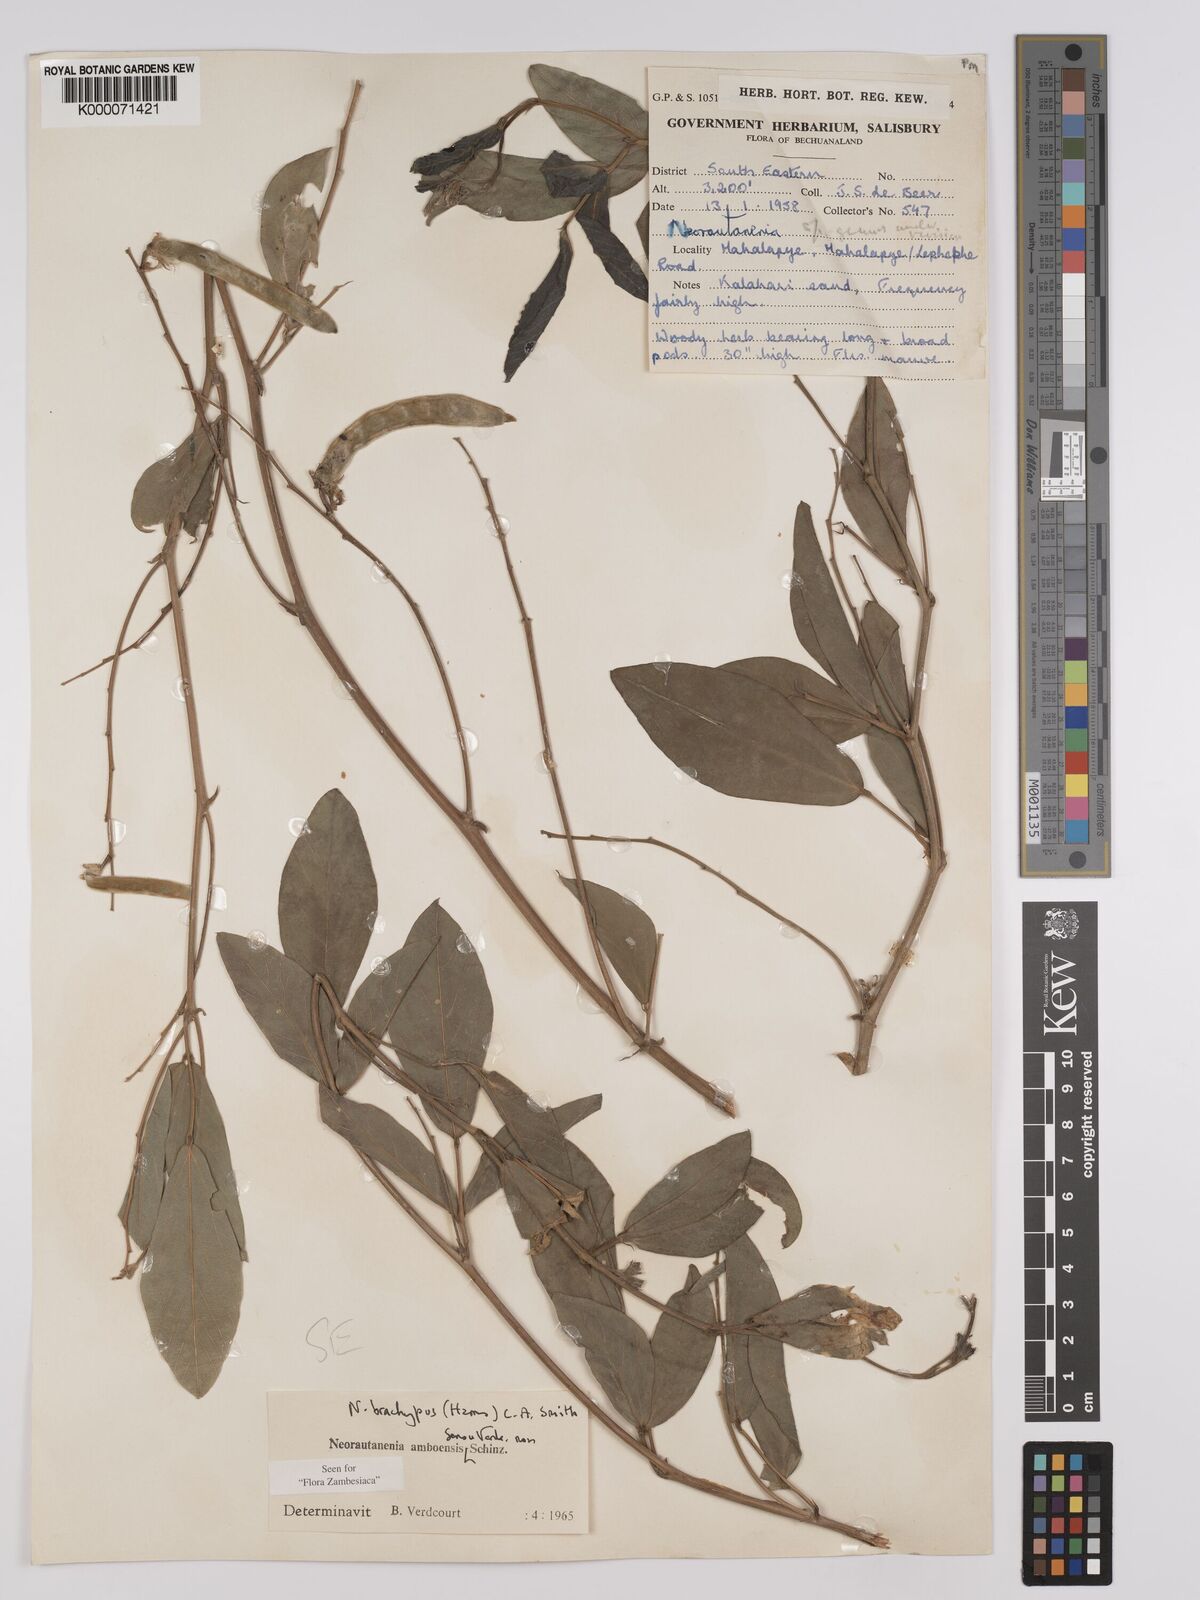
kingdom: Plantae
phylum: Tracheophyta
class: Magnoliopsida
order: Fabales
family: Fabaceae
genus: Neorautanenia
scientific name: Neorautanenia
